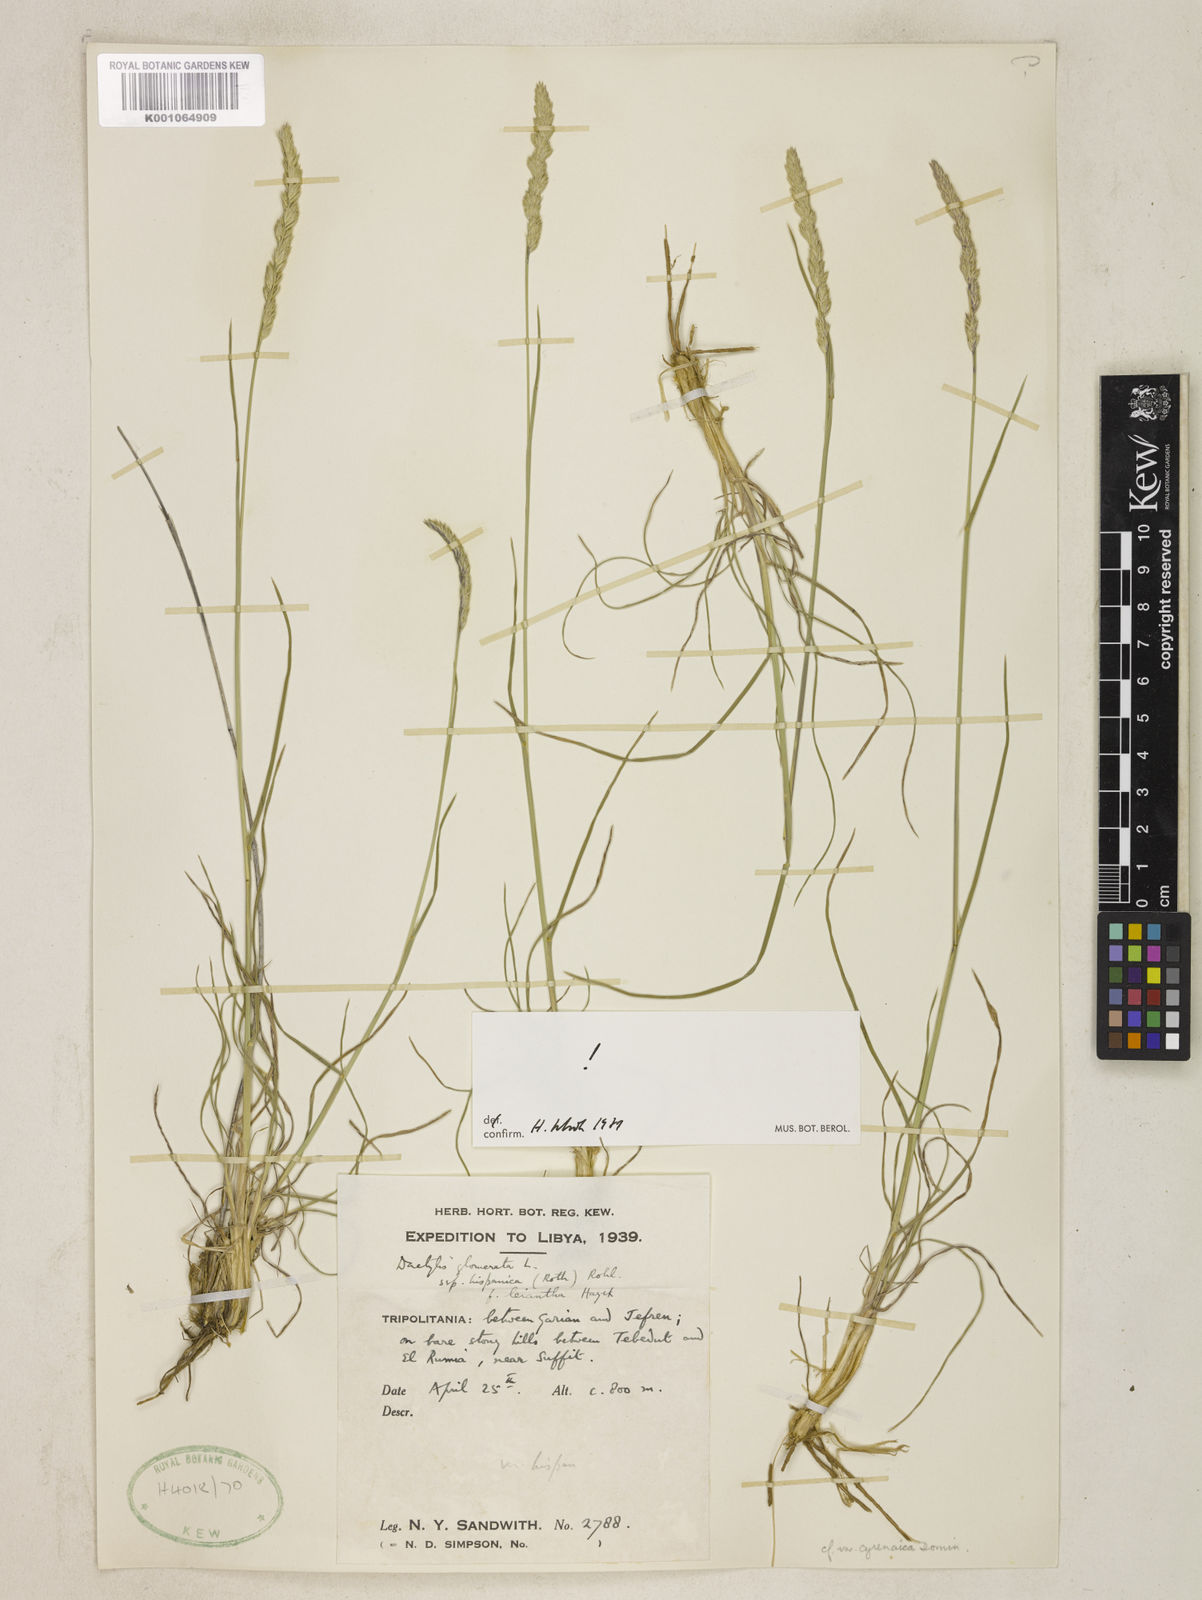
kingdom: Plantae
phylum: Tracheophyta
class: Liliopsida
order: Poales
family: Poaceae
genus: Dactylis
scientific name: Dactylis glomerata
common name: Orchardgrass
